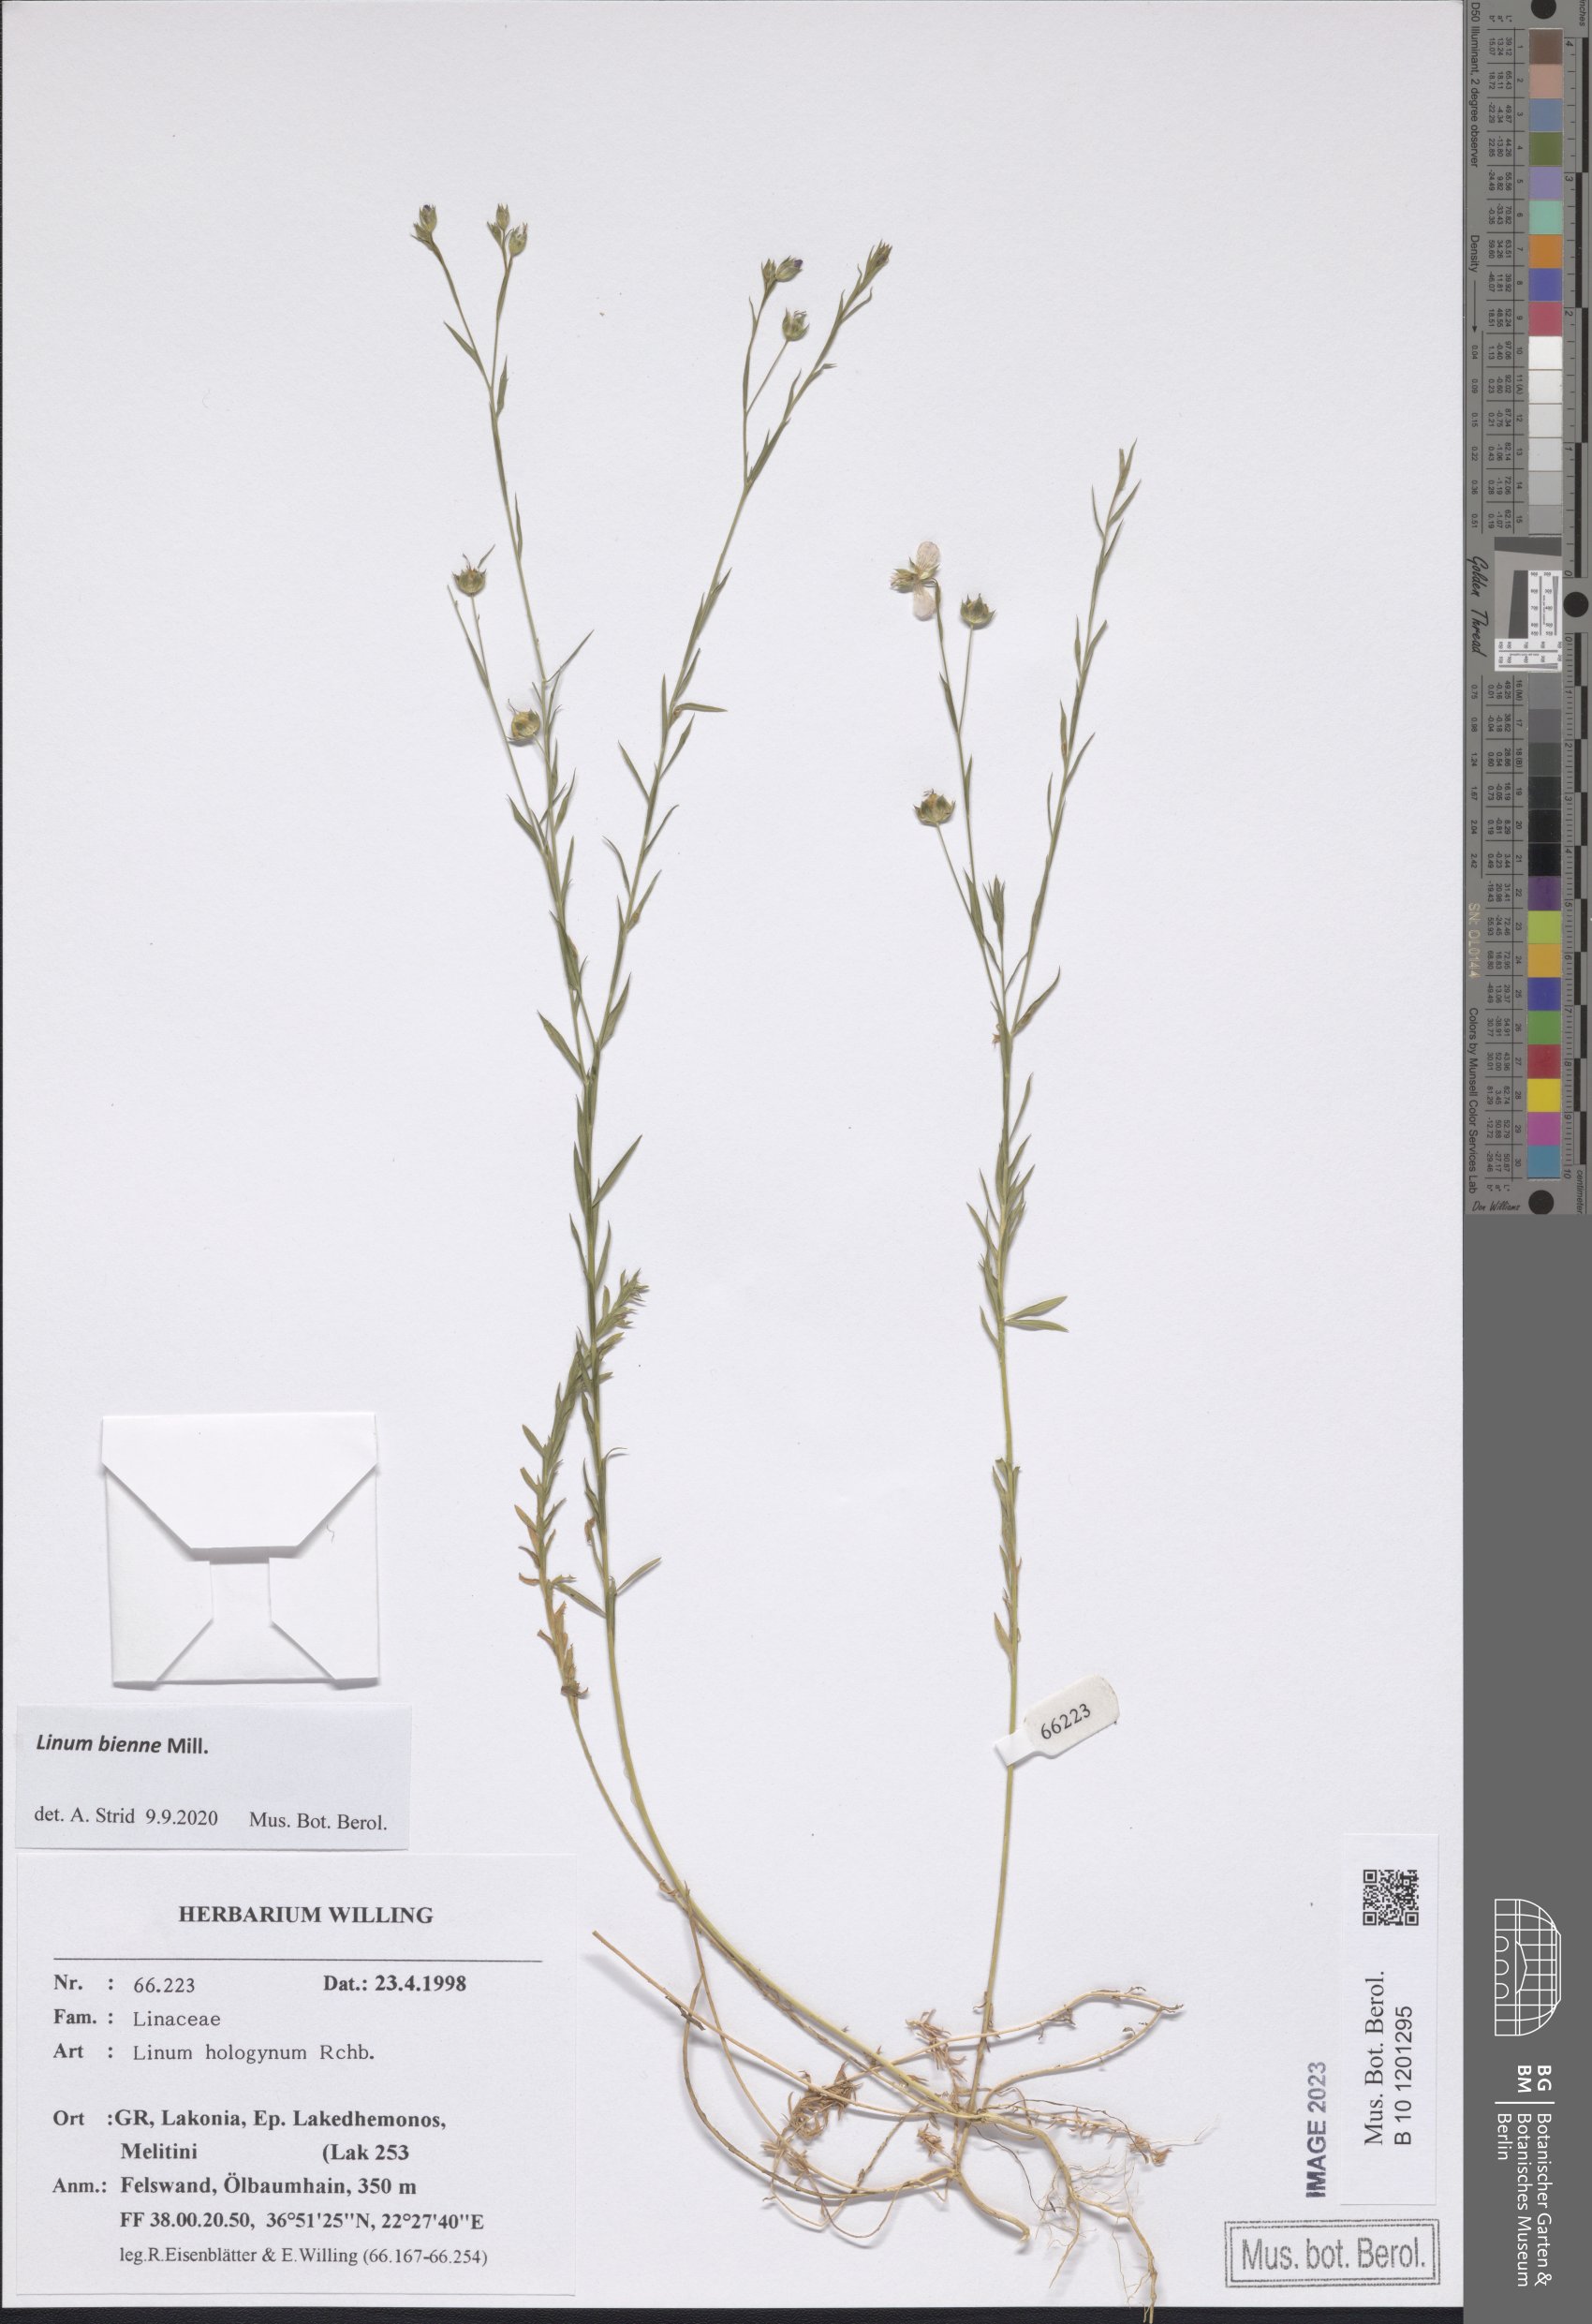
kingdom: Plantae
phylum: Tracheophyta
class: Magnoliopsida
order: Malpighiales
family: Linaceae
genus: Linum
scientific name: Linum bienne
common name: Pale flax
